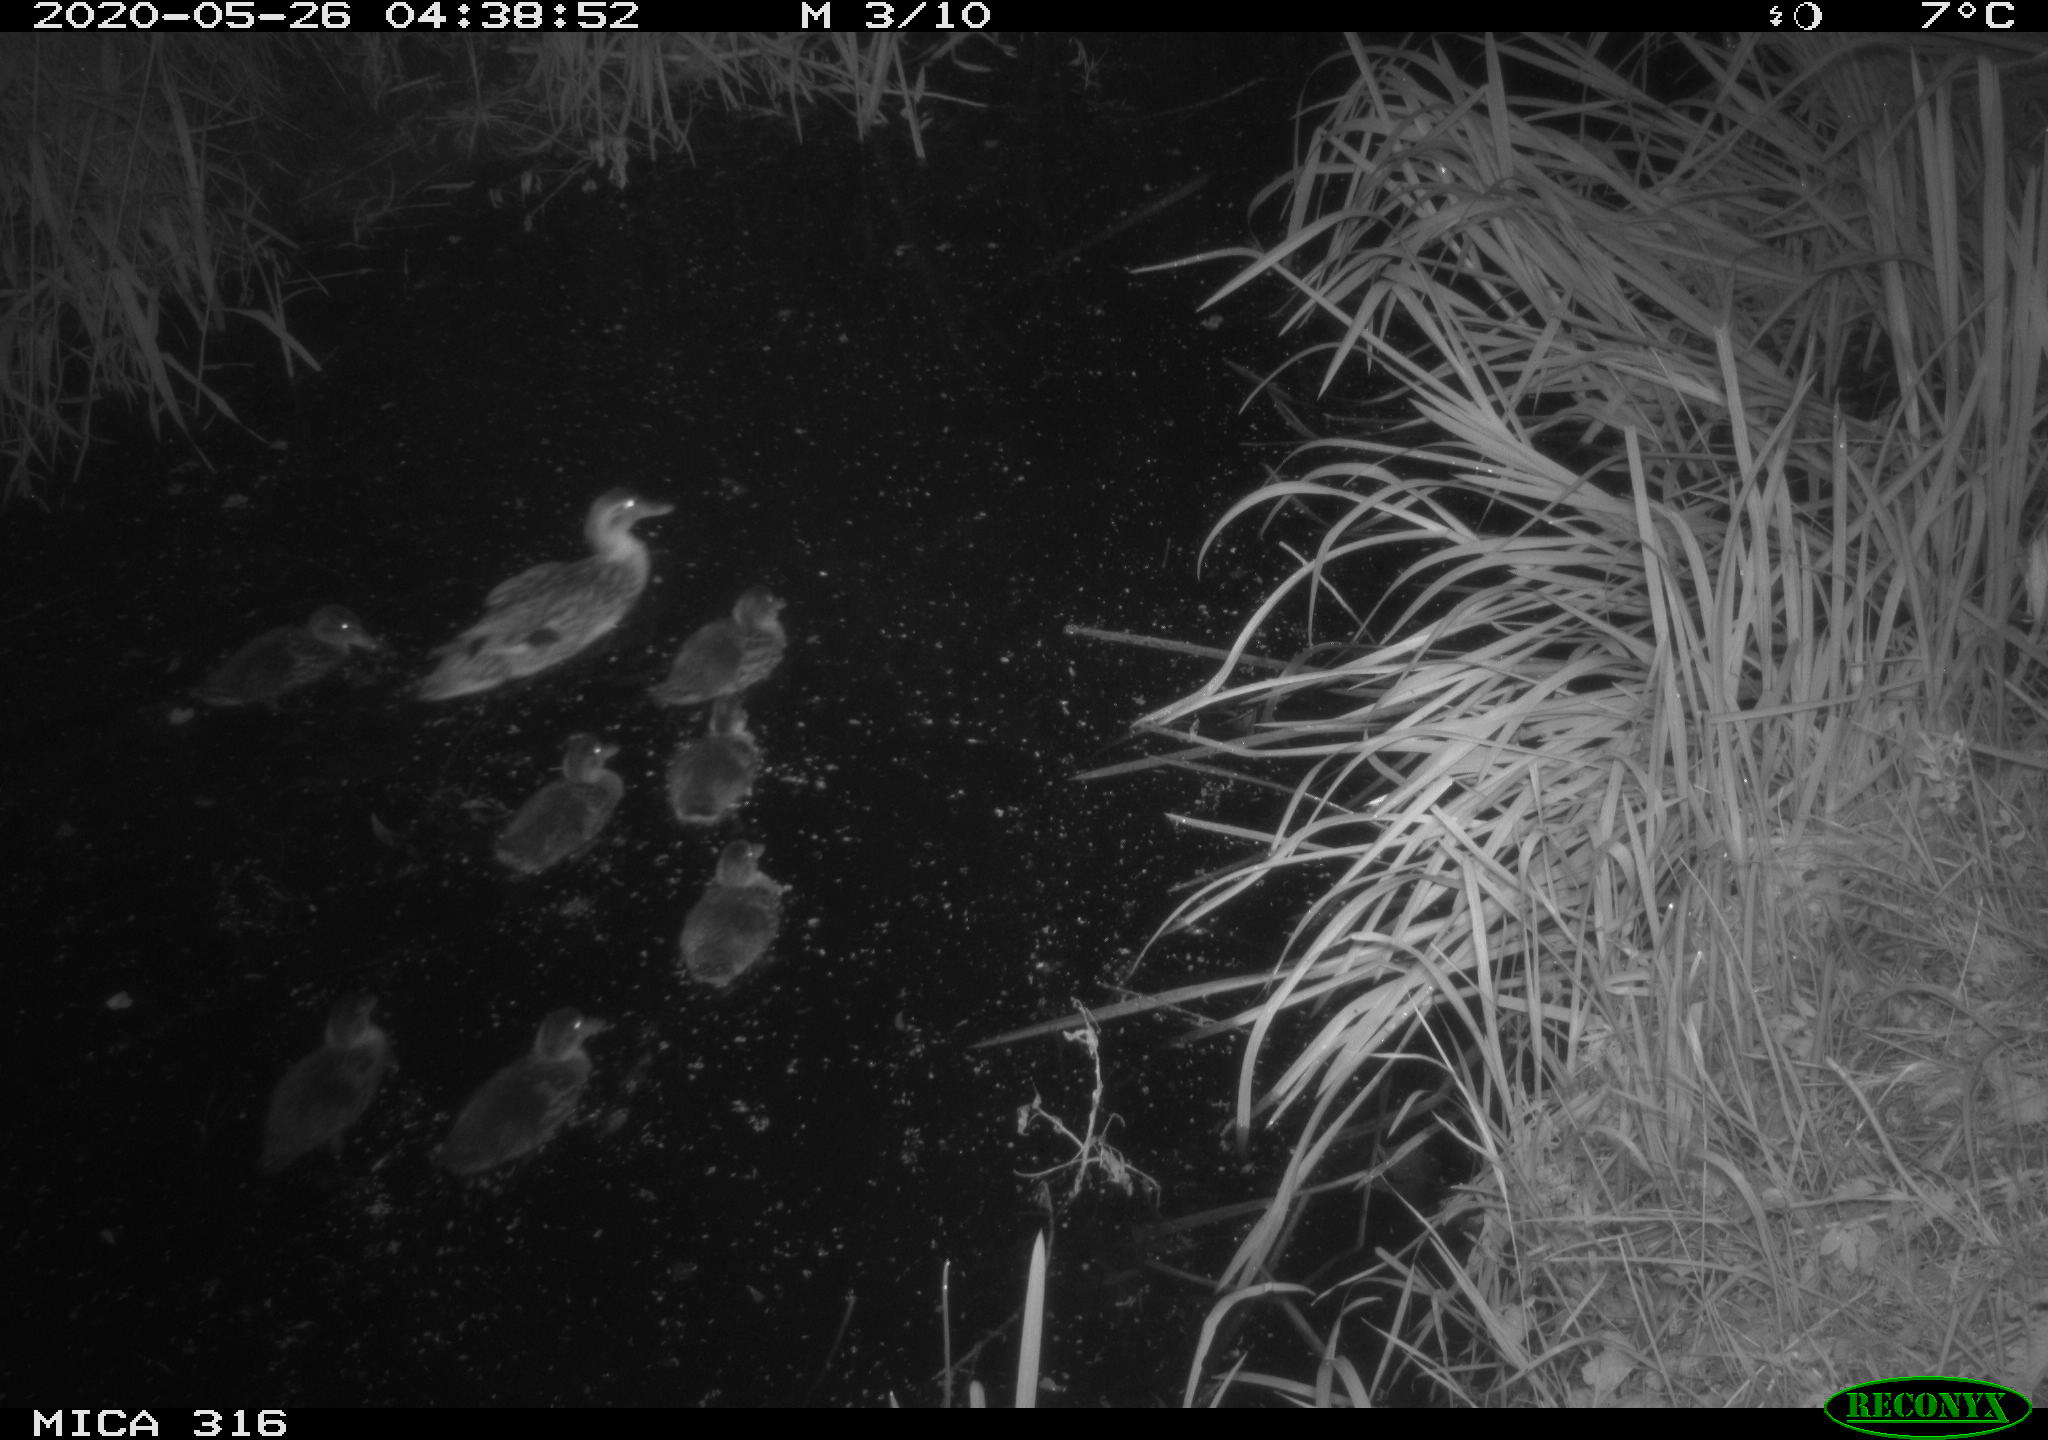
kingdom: Animalia
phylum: Chordata
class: Aves
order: Anseriformes
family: Anatidae
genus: Anas
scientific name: Anas platyrhynchos
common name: Mallard
